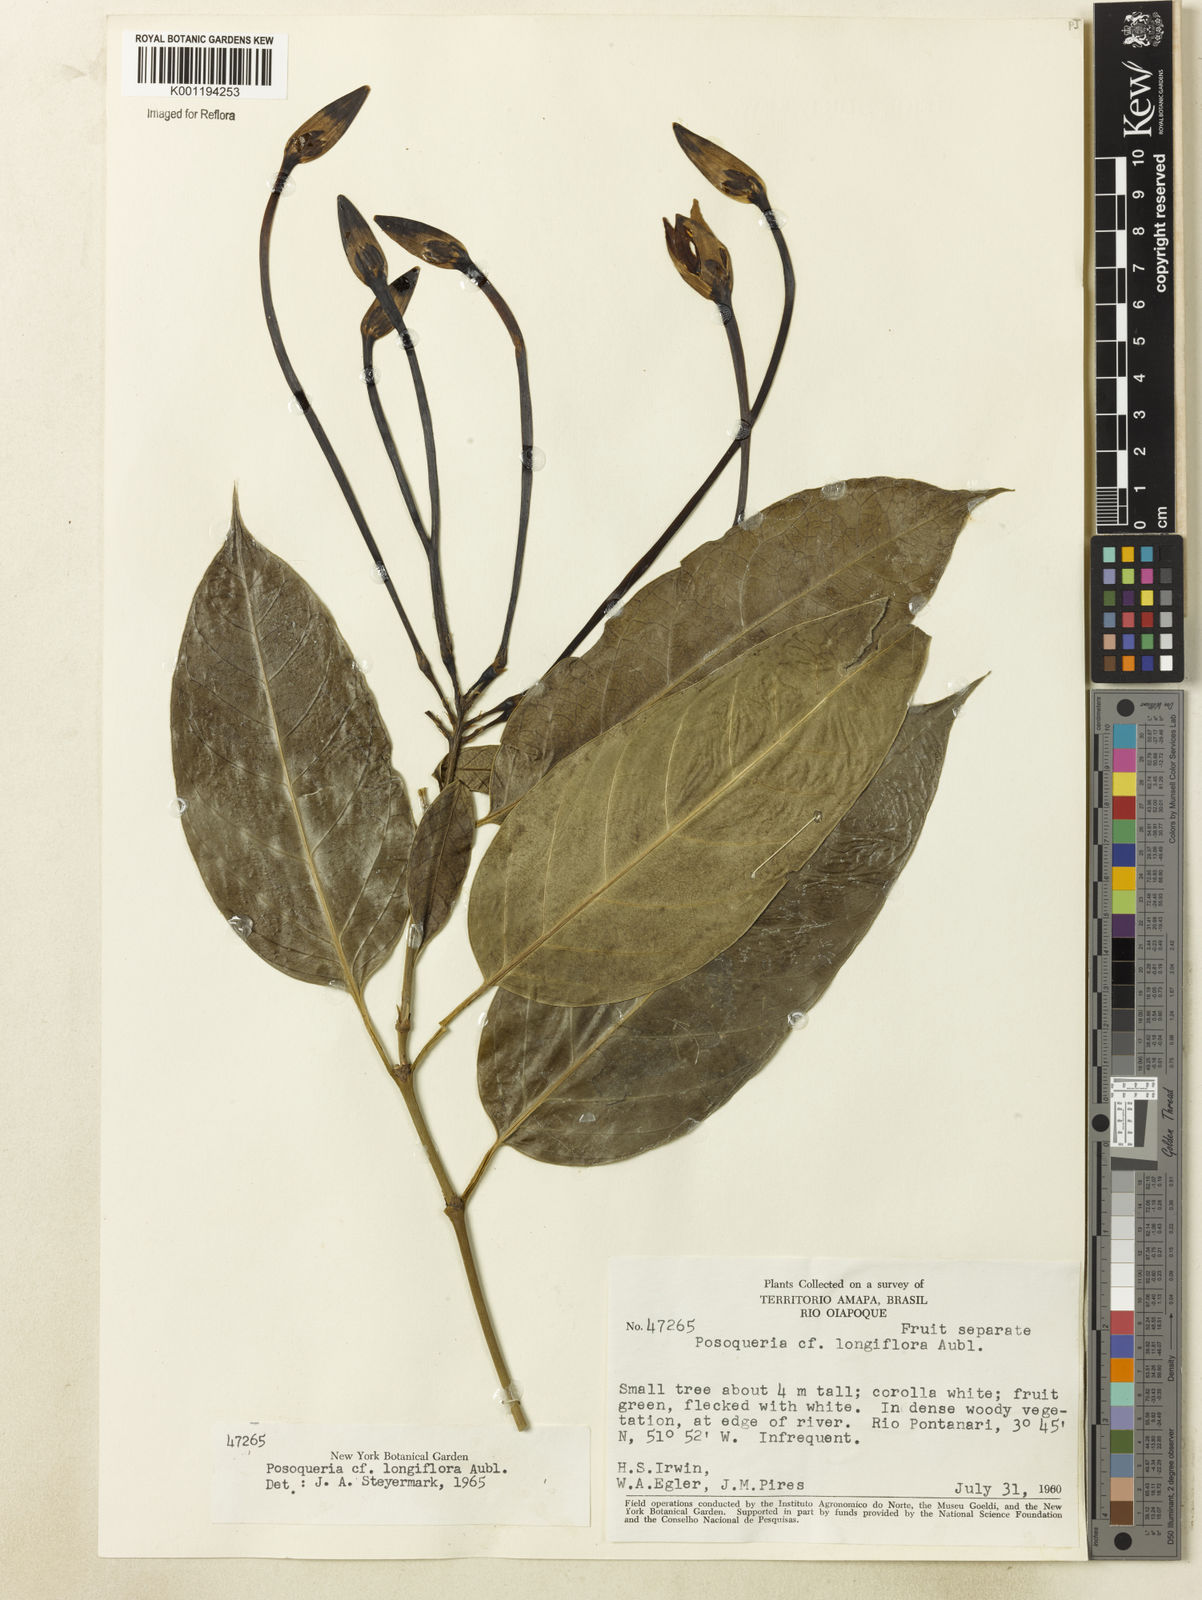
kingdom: Plantae
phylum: Tracheophyta
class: Magnoliopsida
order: Gentianales
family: Rubiaceae
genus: Posoqueria
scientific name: Posoqueria longiflora
